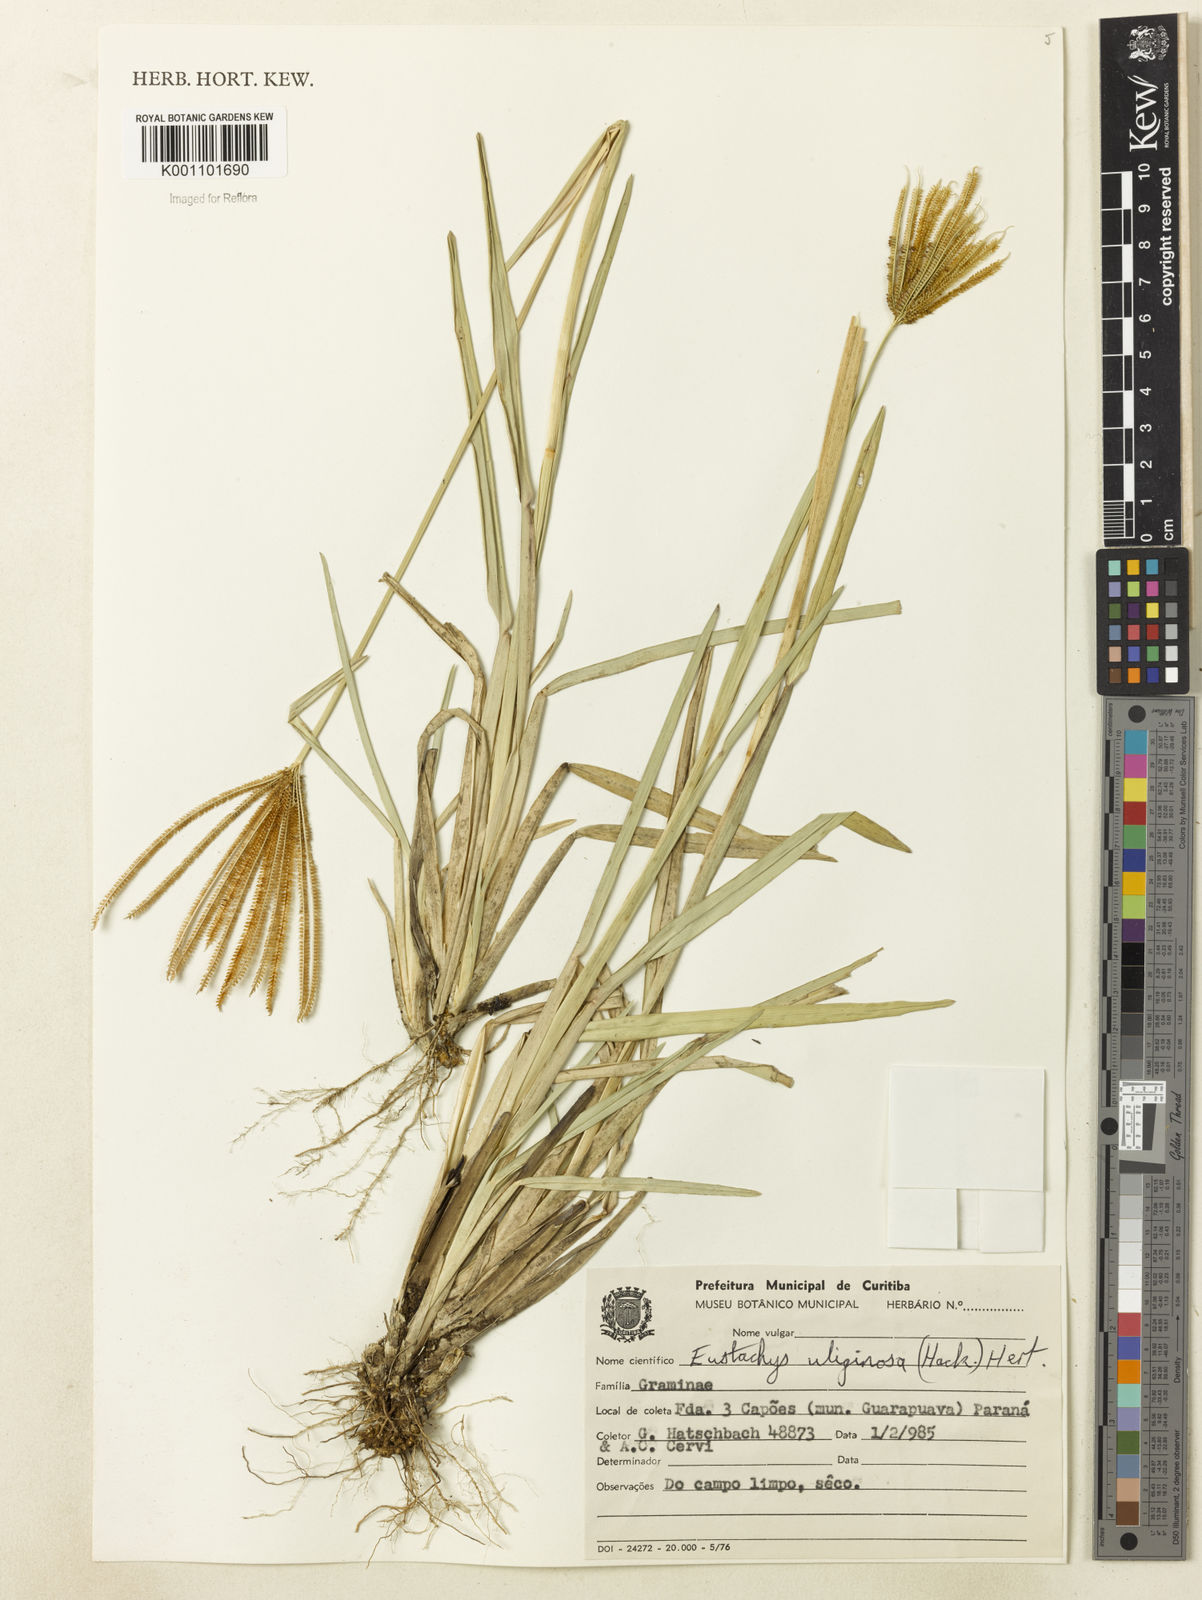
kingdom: Plantae
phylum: Tracheophyta
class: Liliopsida
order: Poales
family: Poaceae
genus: Eustachys
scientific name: Eustachys uliginosa
